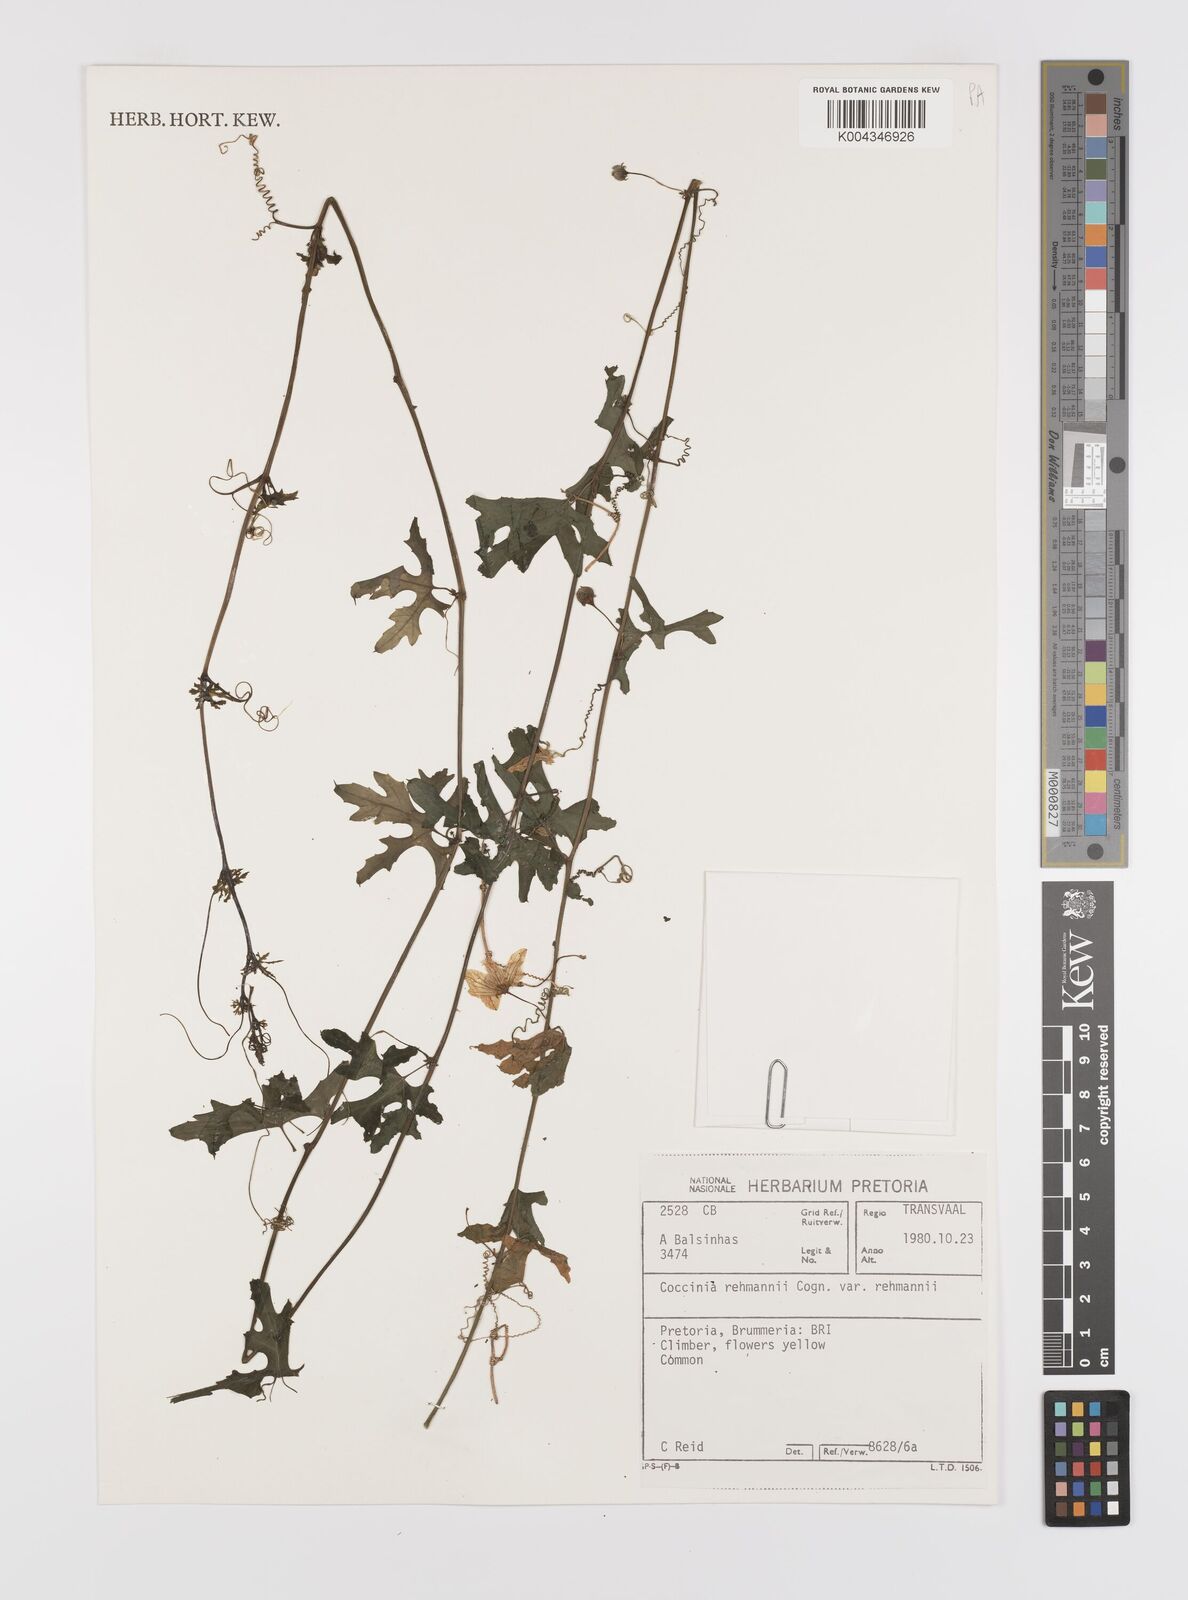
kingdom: Plantae
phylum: Tracheophyta
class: Magnoliopsida
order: Cucurbitales
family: Cucurbitaceae
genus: Coccinia
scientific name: Coccinia rehmannii
